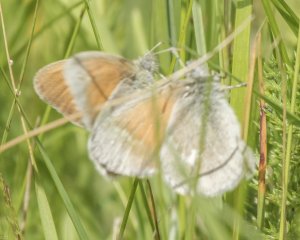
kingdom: Animalia
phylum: Arthropoda
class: Insecta
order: Lepidoptera
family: Nymphalidae
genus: Coenonympha
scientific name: Coenonympha tullia
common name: Large Heath
